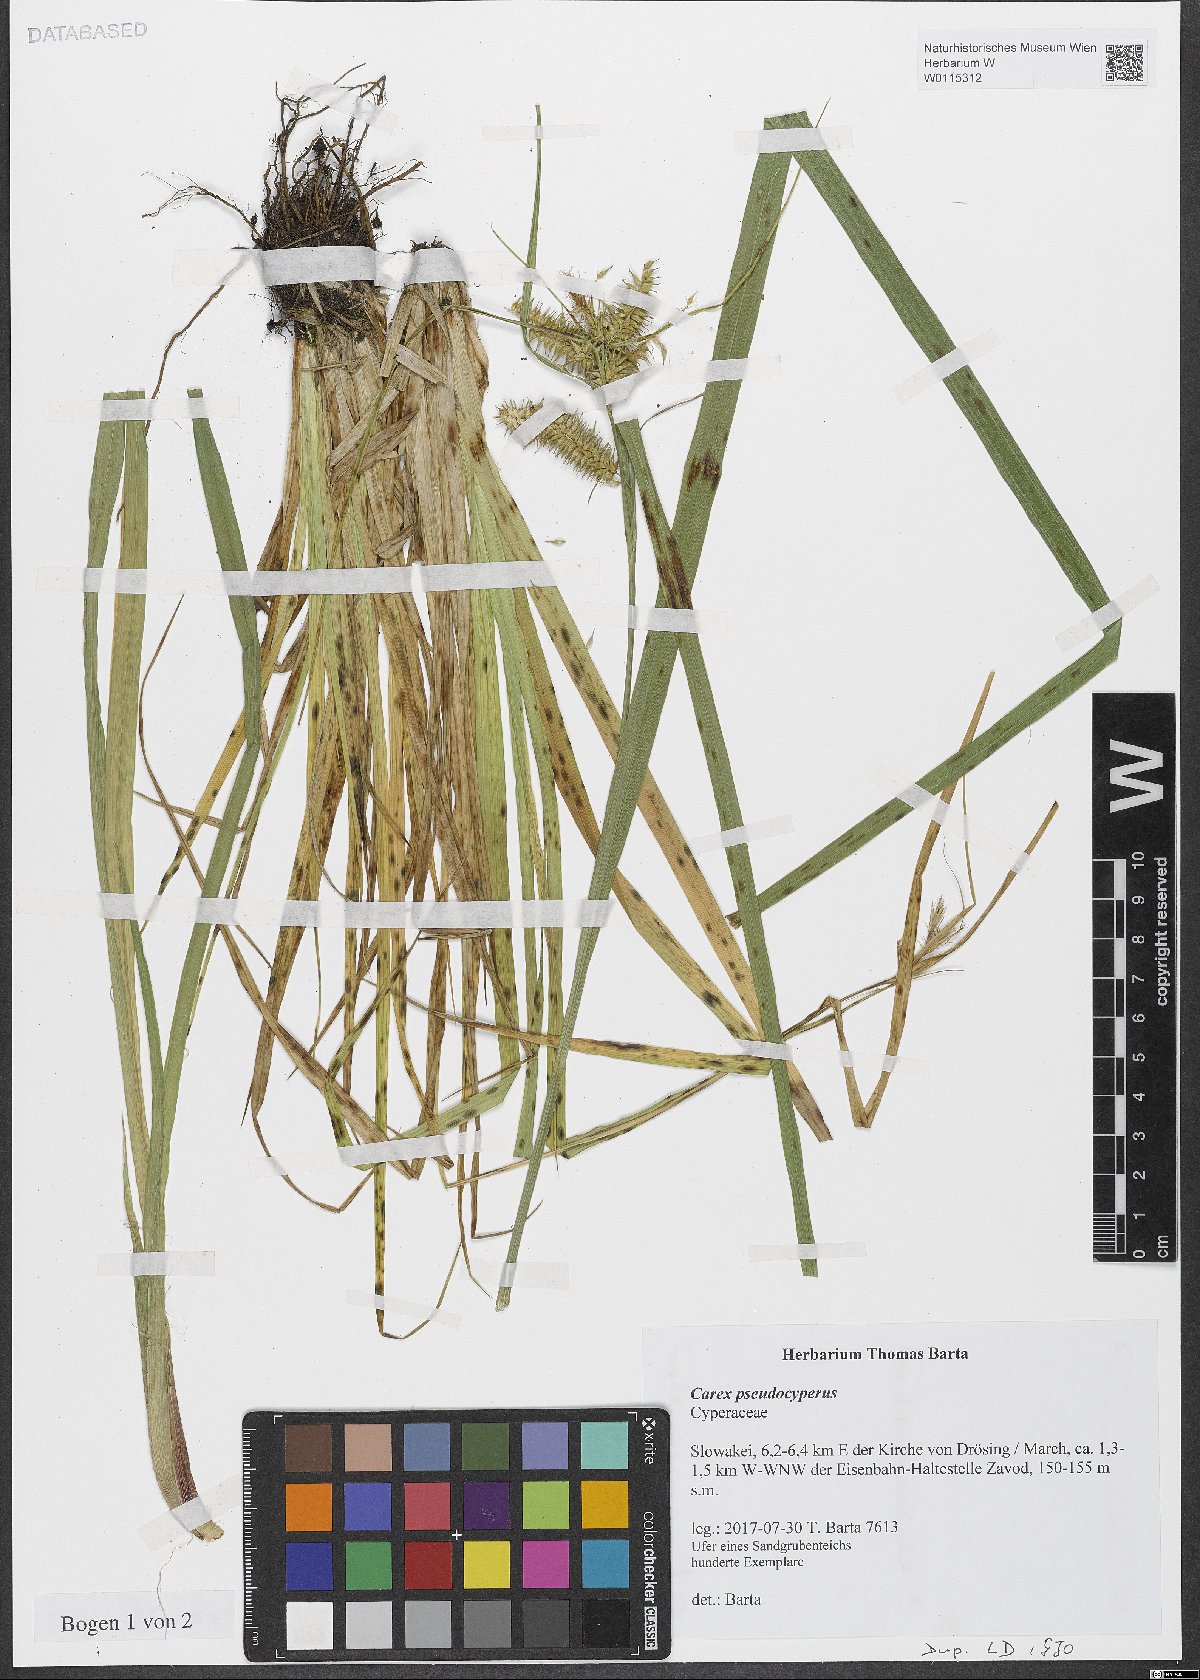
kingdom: Plantae
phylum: Tracheophyta
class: Liliopsida
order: Poales
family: Cyperaceae
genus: Carex
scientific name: Carex pseudocyperus
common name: Cyperus sedge
